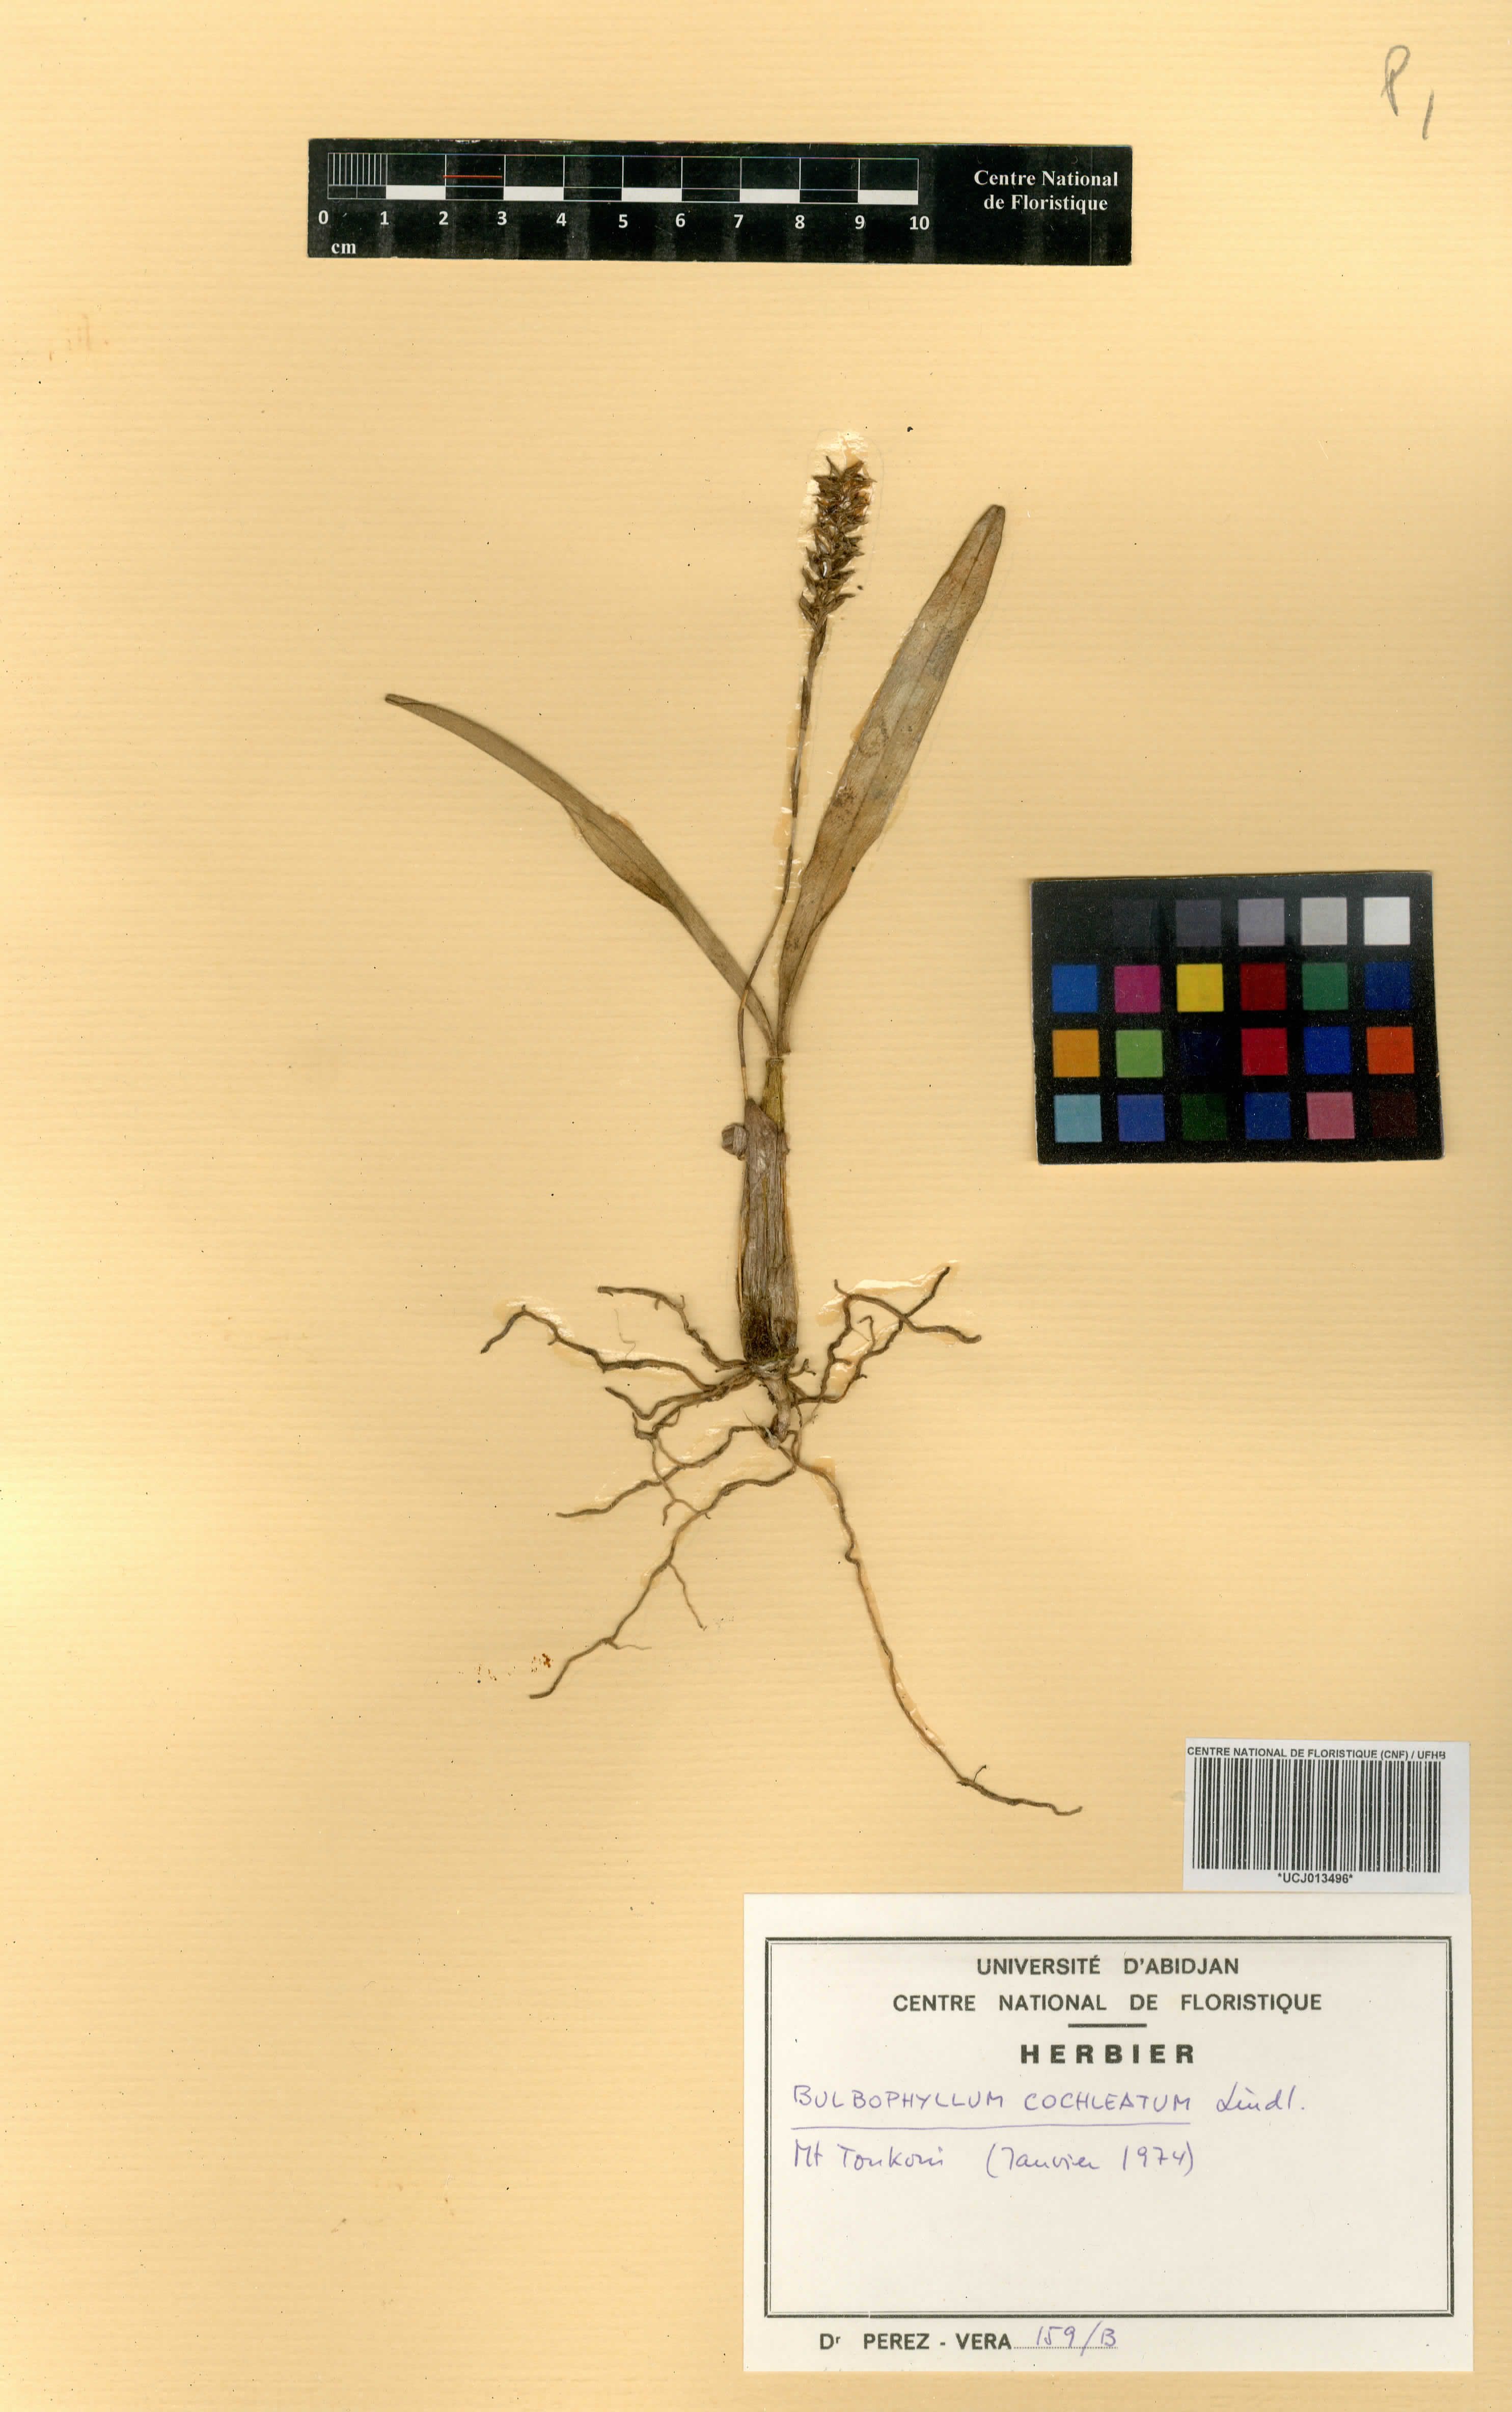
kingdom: Plantae
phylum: Tracheophyta
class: Liliopsida
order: Asparagales
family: Orchidaceae
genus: Bulbophyllum
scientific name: Bulbophyllum cochleatum
